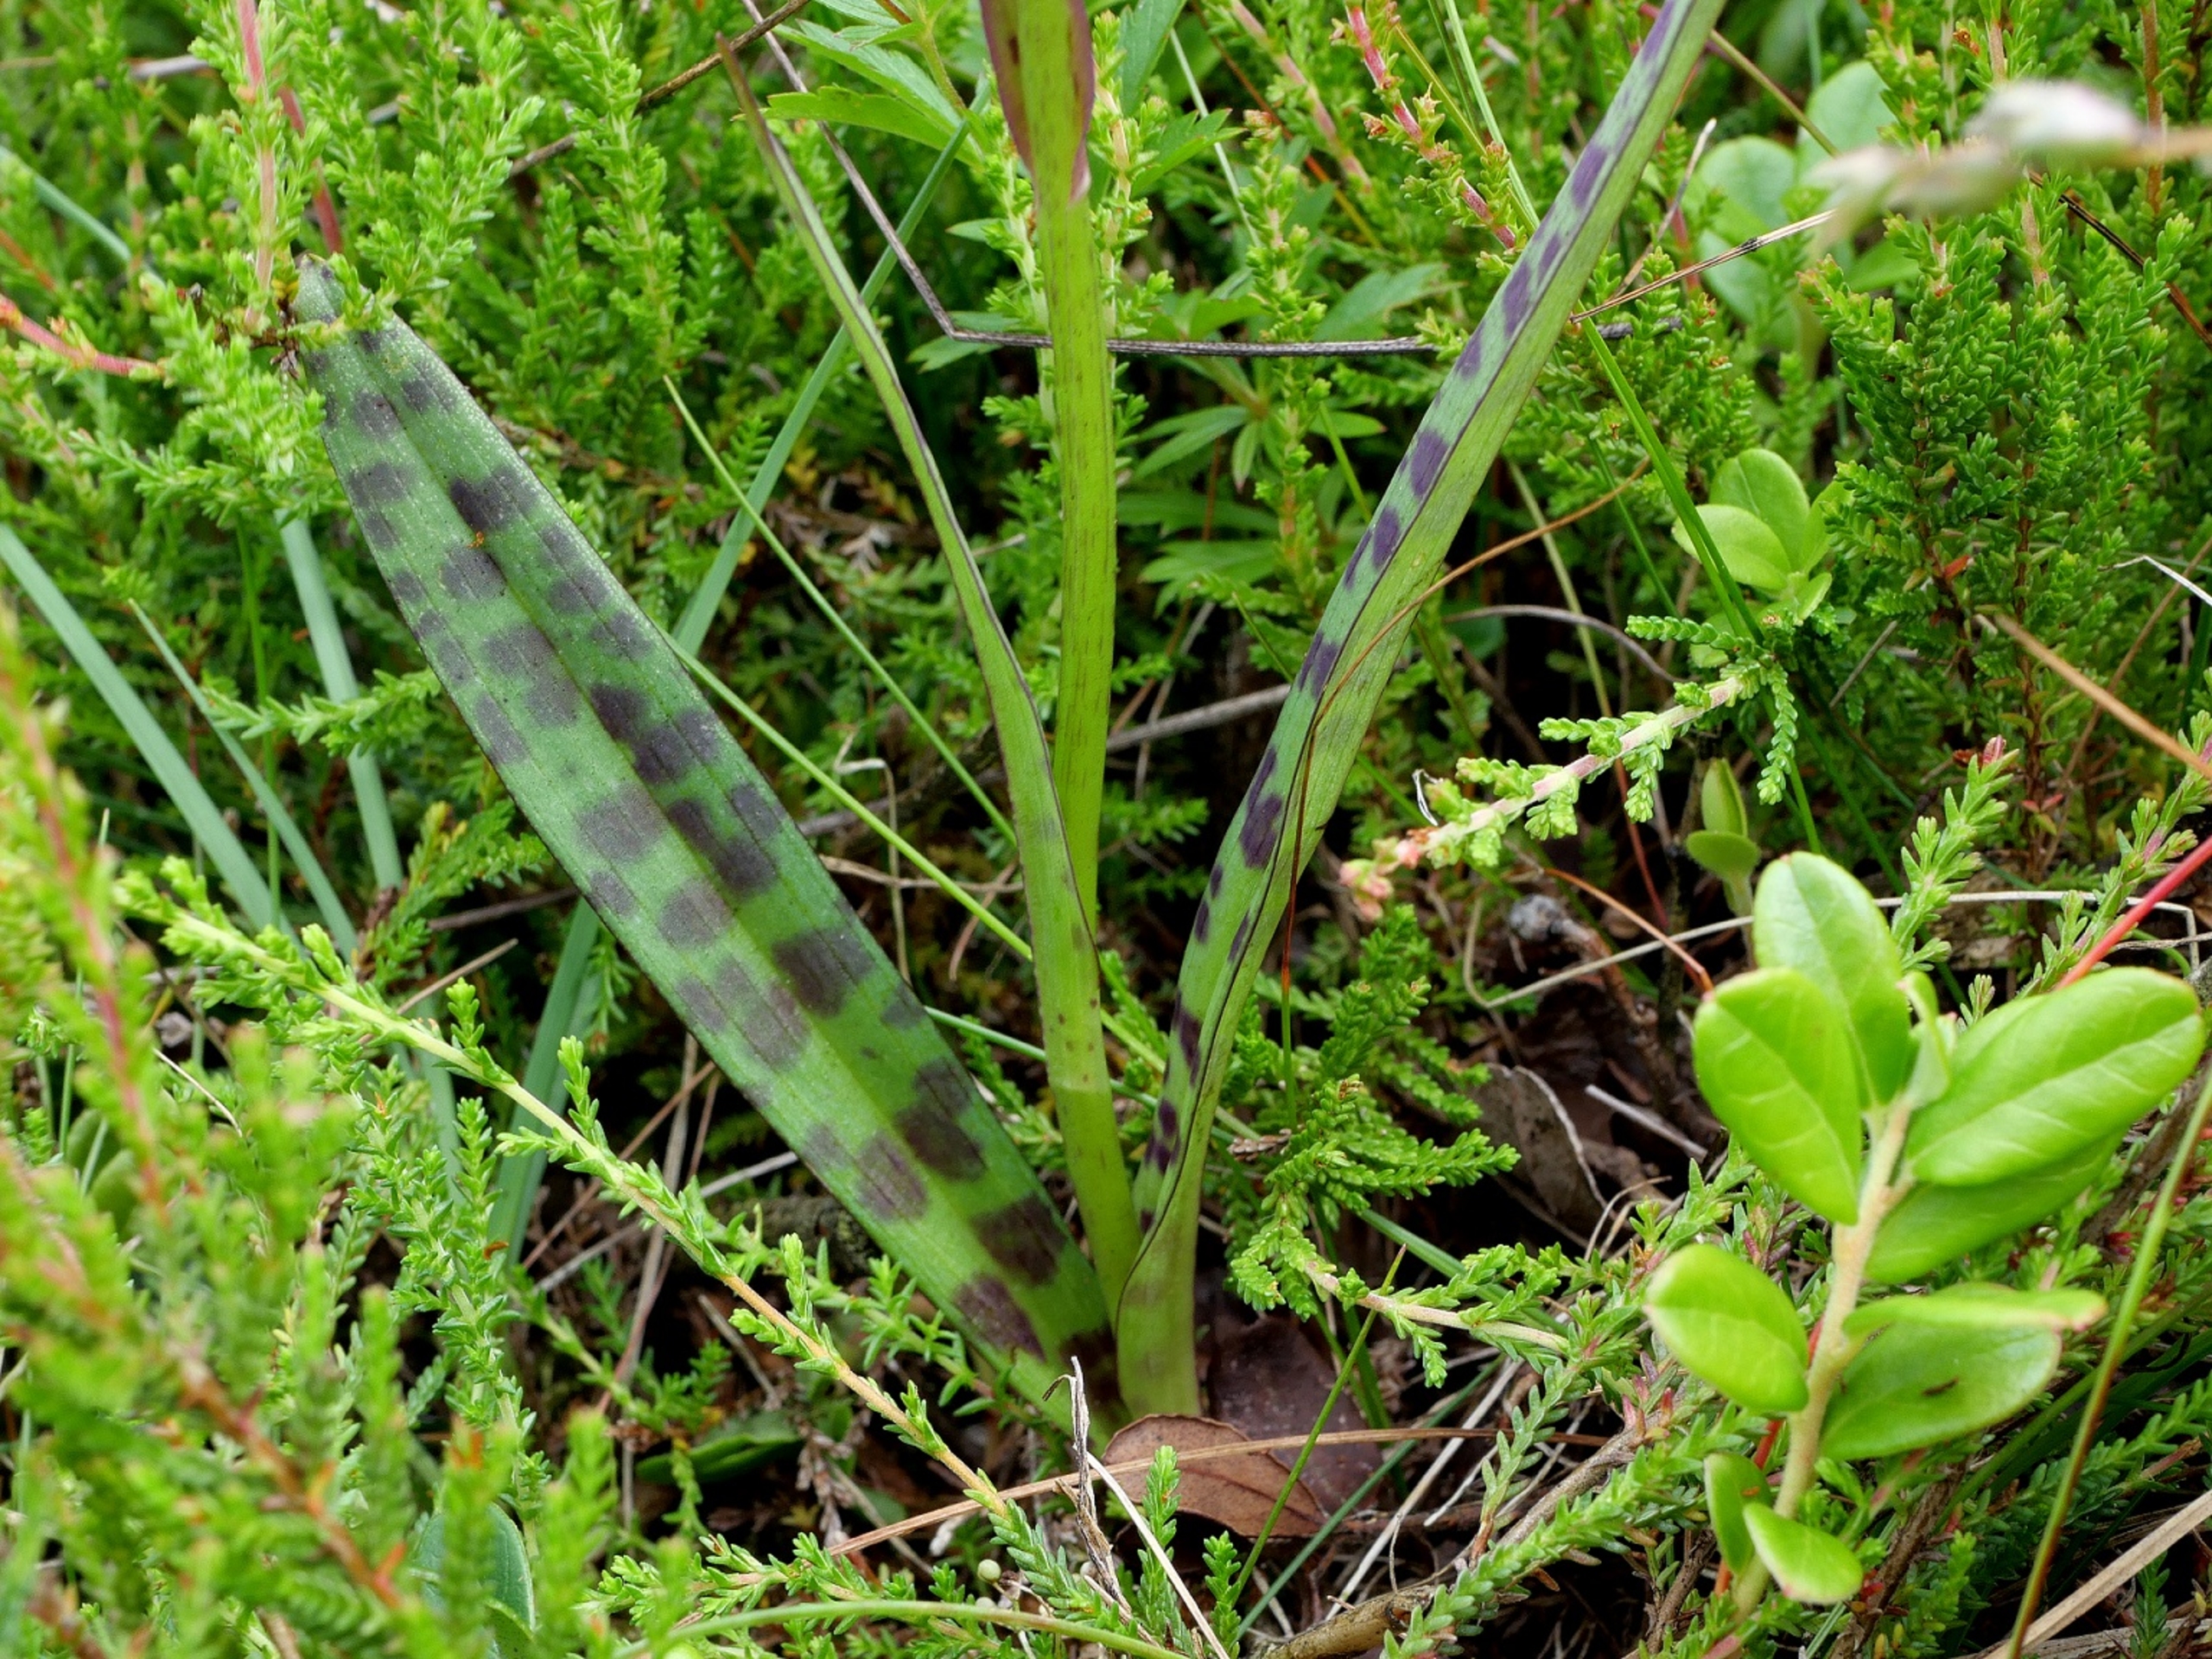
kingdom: Plantae
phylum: Tracheophyta
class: Liliopsida
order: Asparagales
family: Orchidaceae
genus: Dactylorhiza
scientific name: Dactylorhiza maculata
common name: Plettet gøgeurt (underart)
